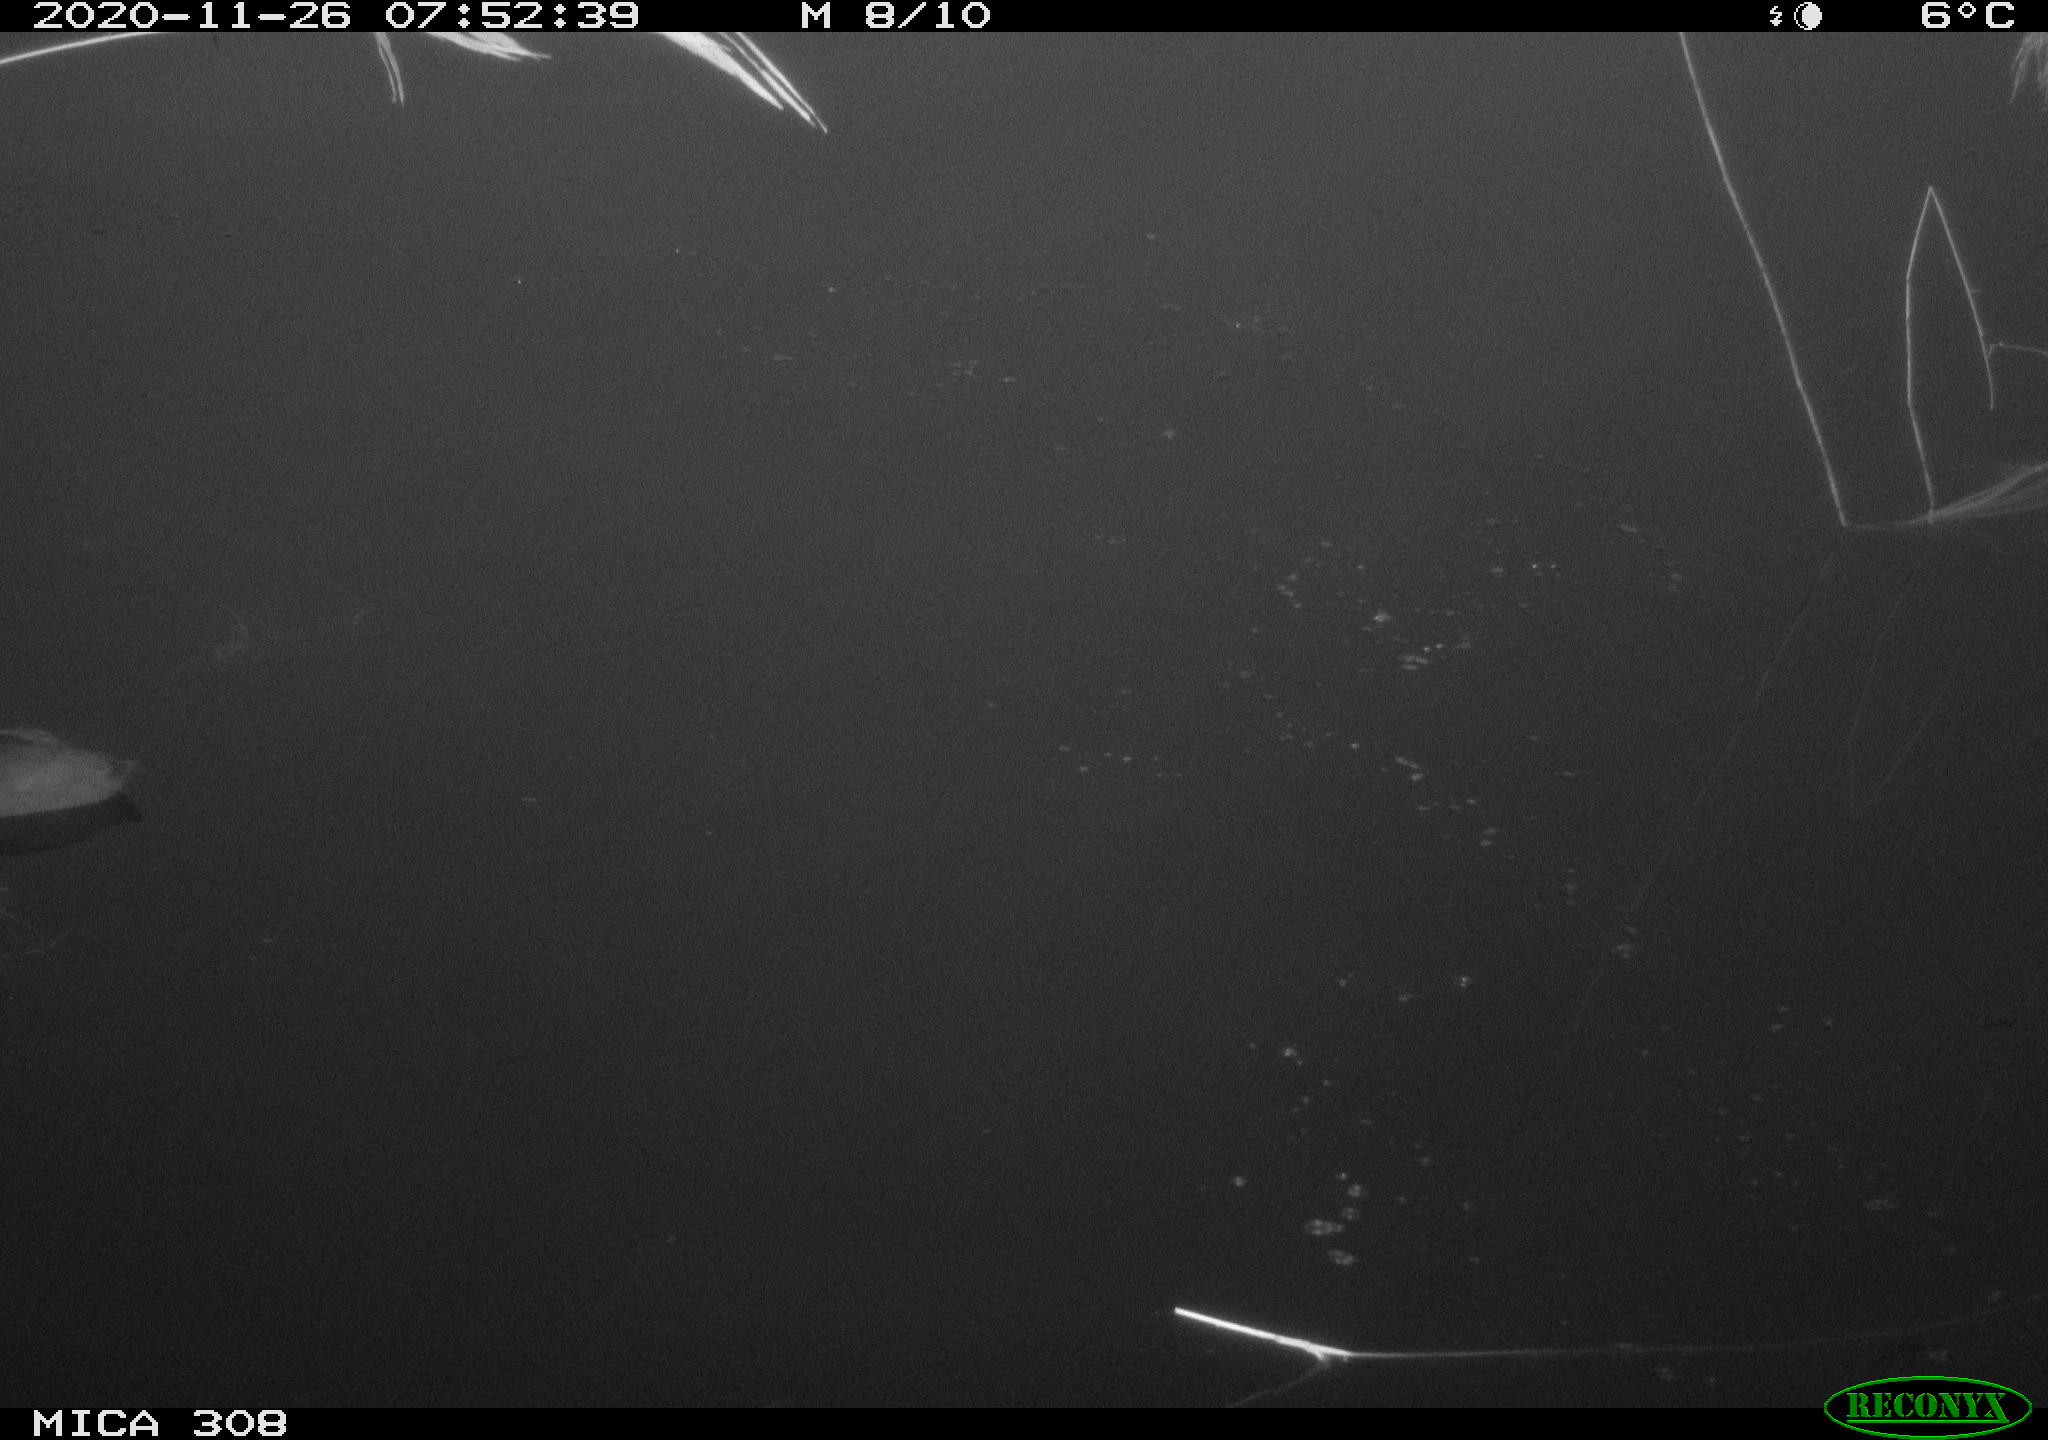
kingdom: Animalia
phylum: Chordata
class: Aves
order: Gruiformes
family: Rallidae
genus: Fulica
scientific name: Fulica atra
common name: Eurasian coot
